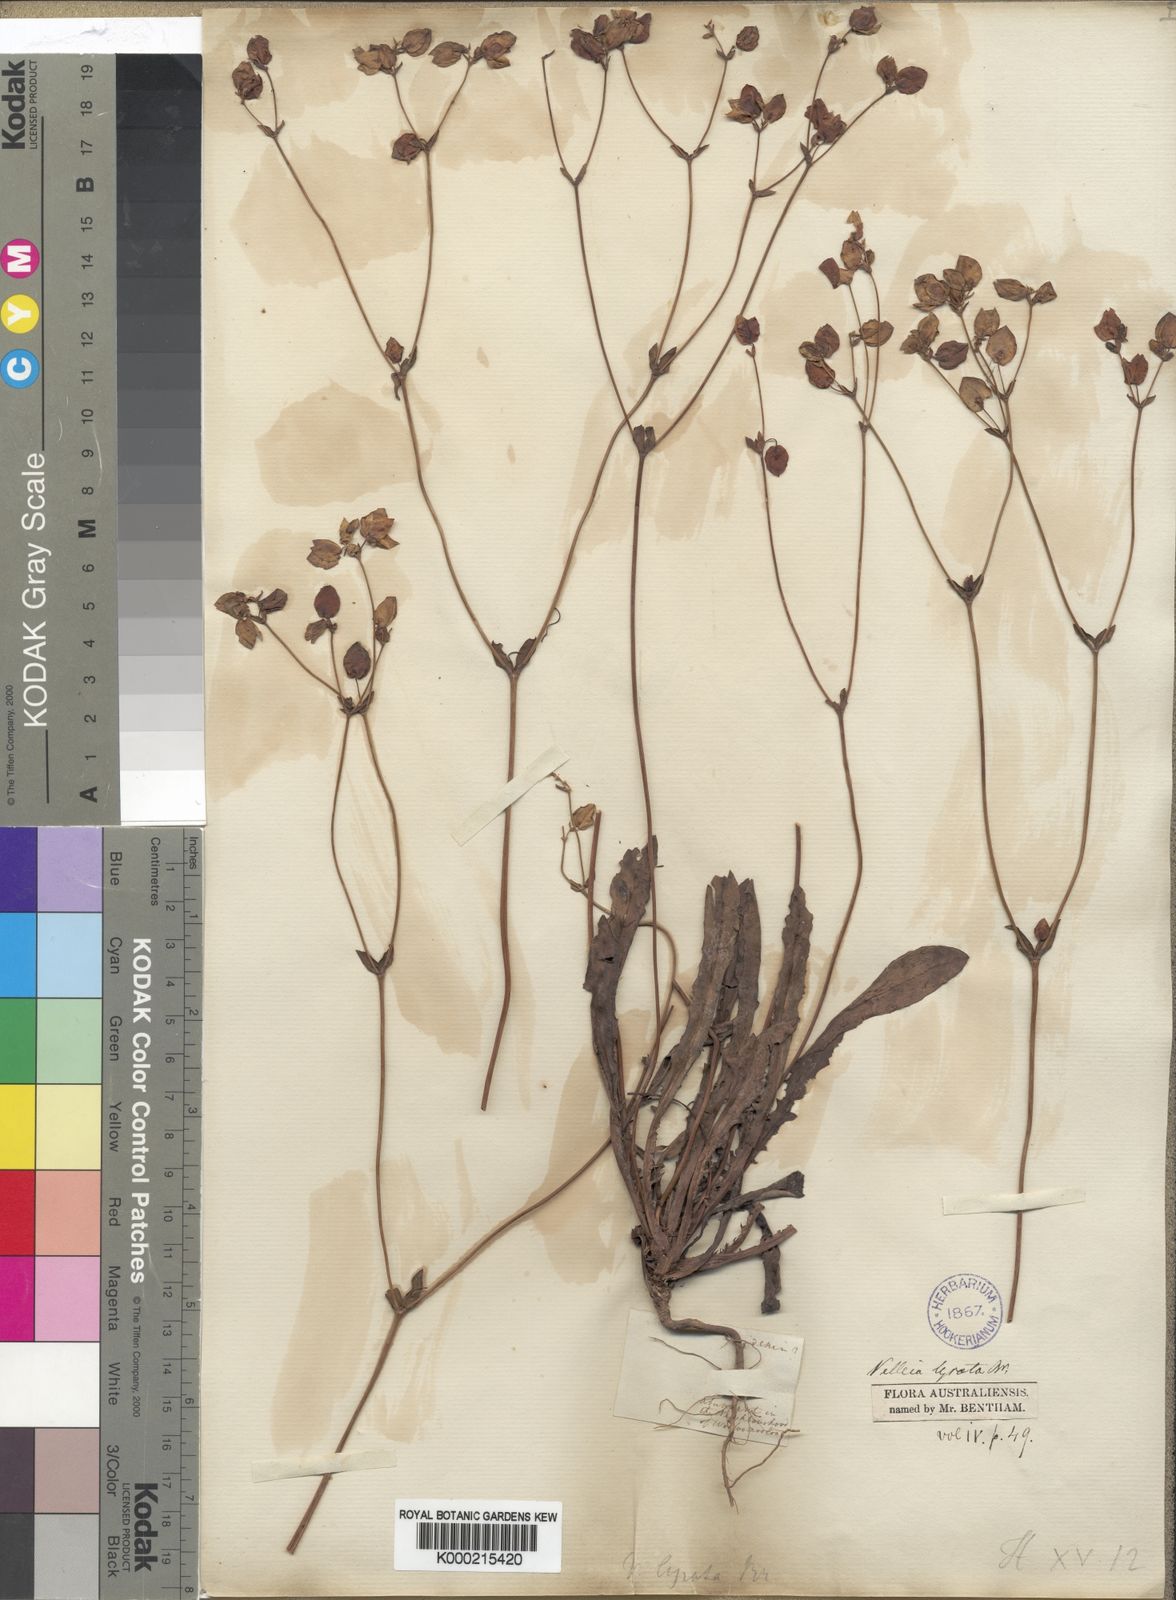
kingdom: Plantae
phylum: Tracheophyta
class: Magnoliopsida
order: Asterales
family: Goodeniaceae
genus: Goodenia
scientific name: Goodenia caroliniana
